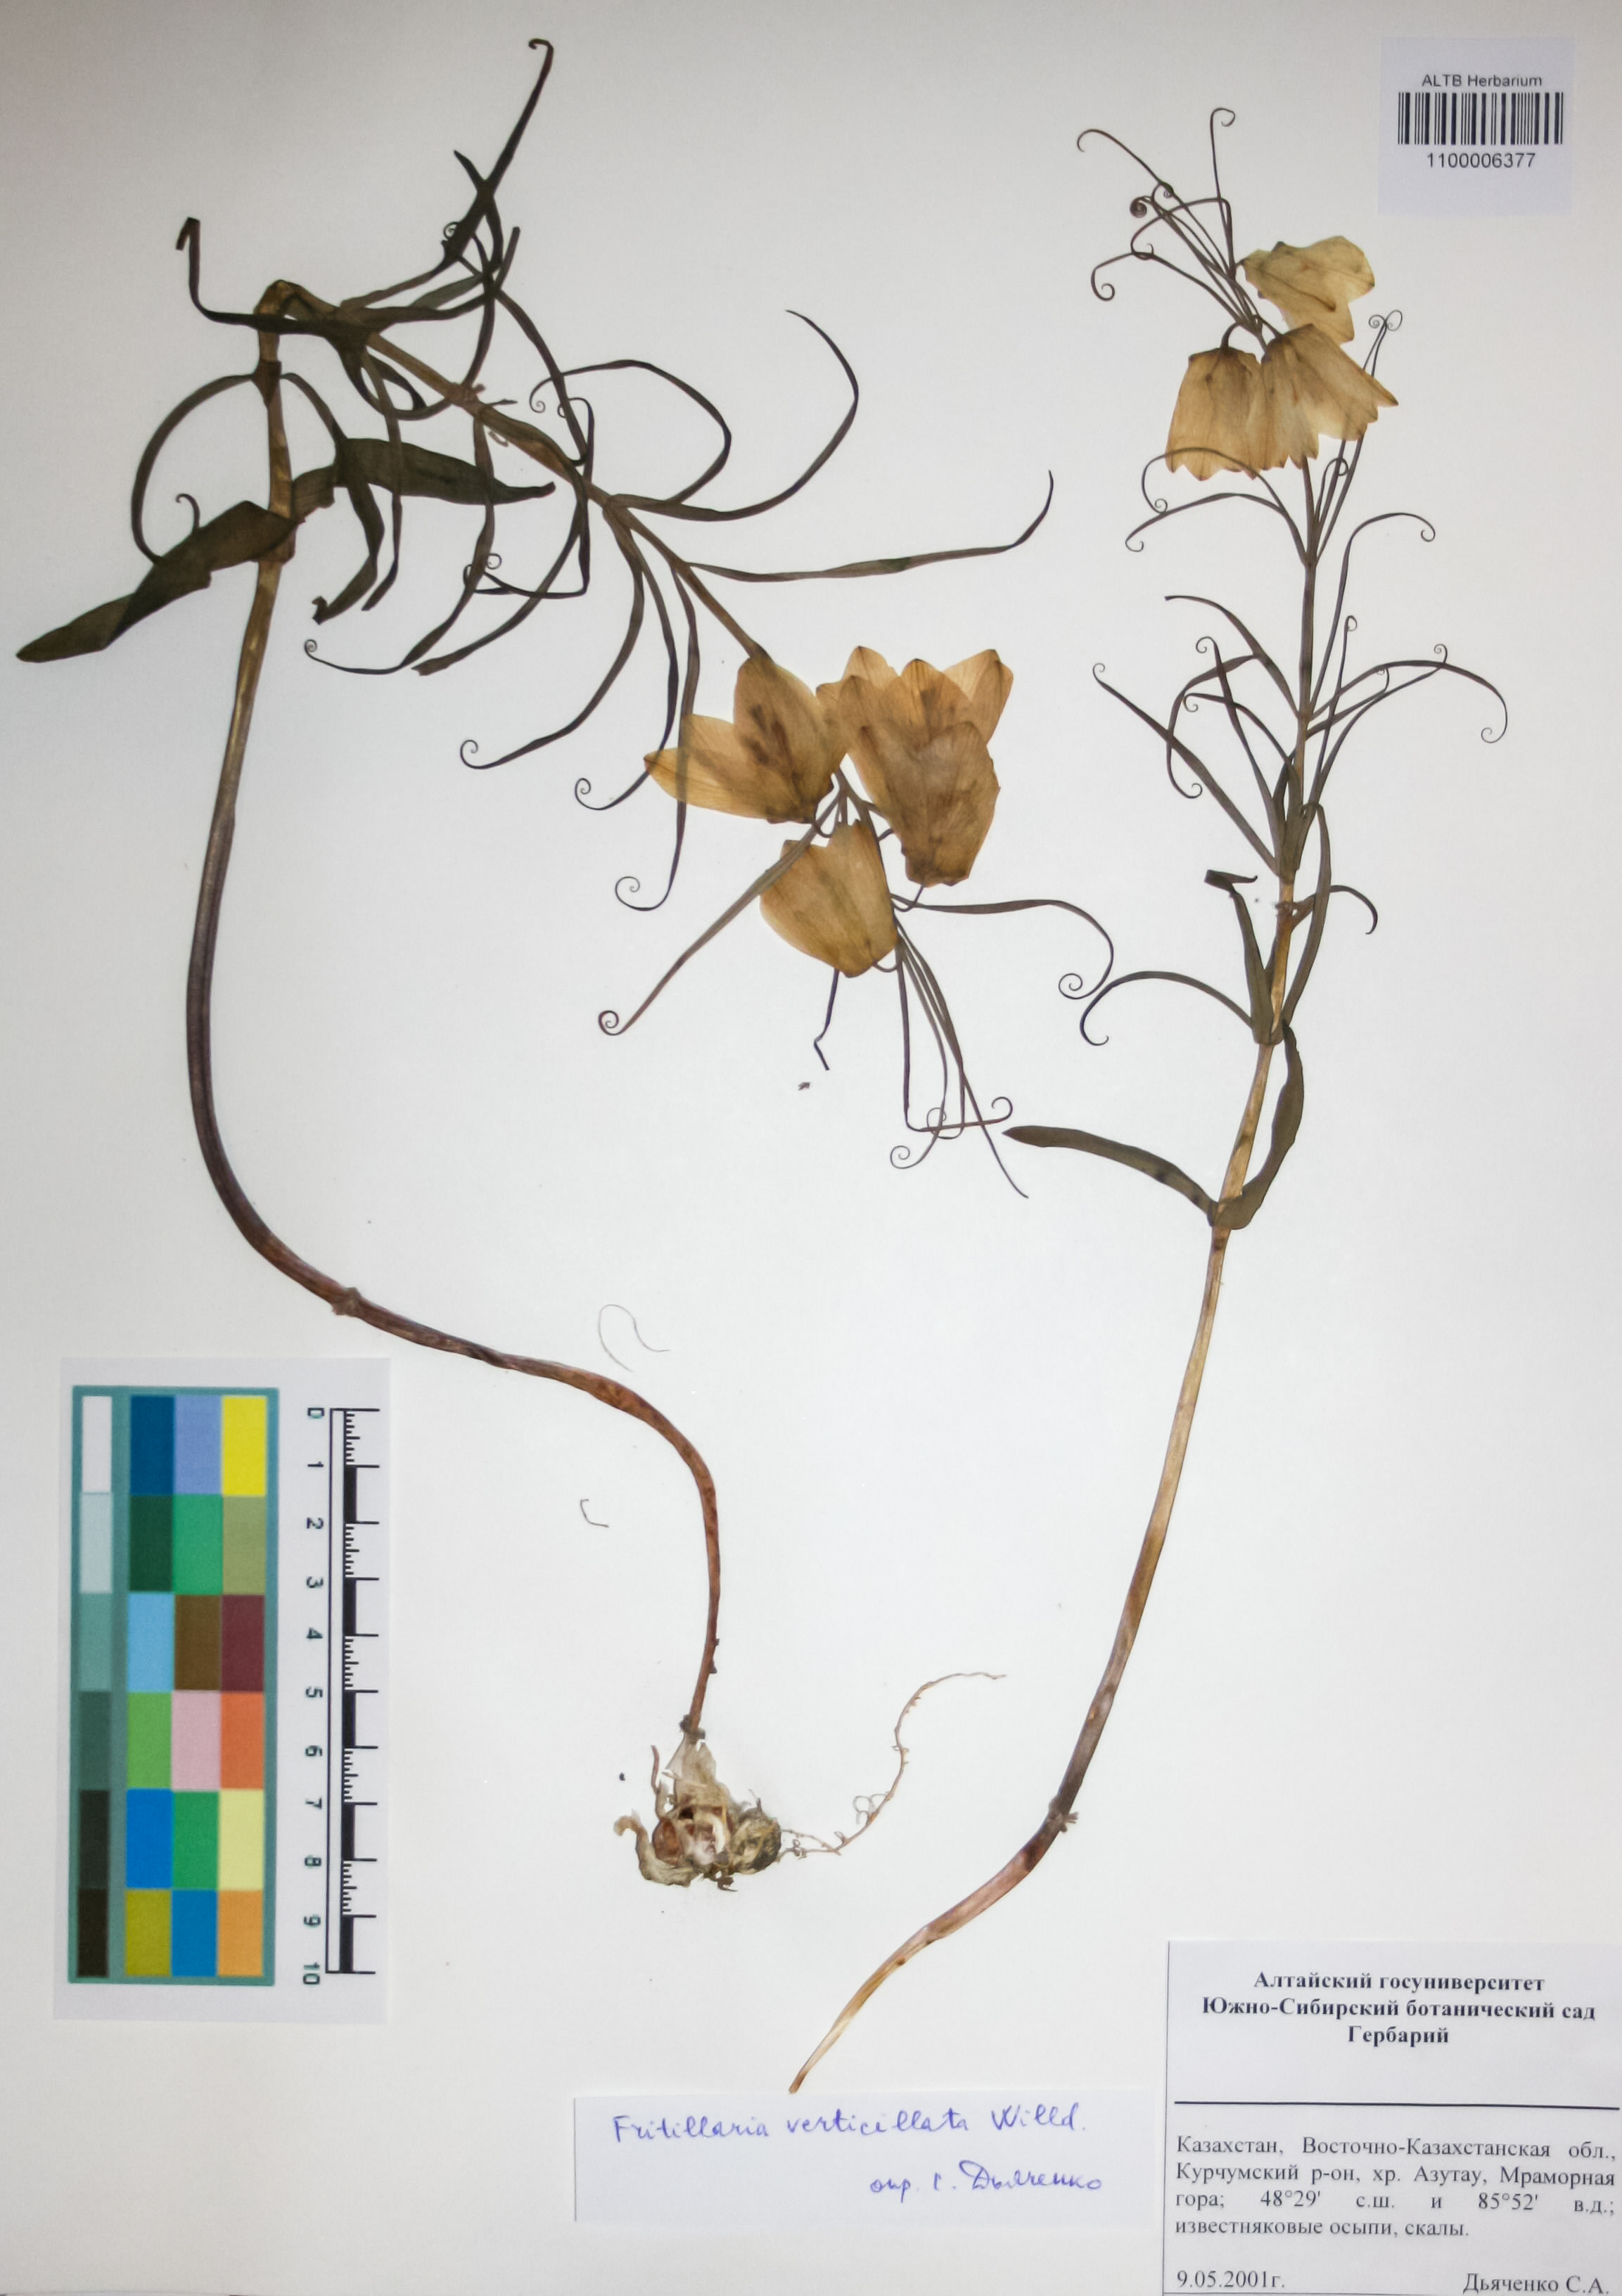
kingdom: Plantae
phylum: Tracheophyta
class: Liliopsida
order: Liliales
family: Liliaceae
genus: Fritillaria
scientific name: Fritillaria verticillata
